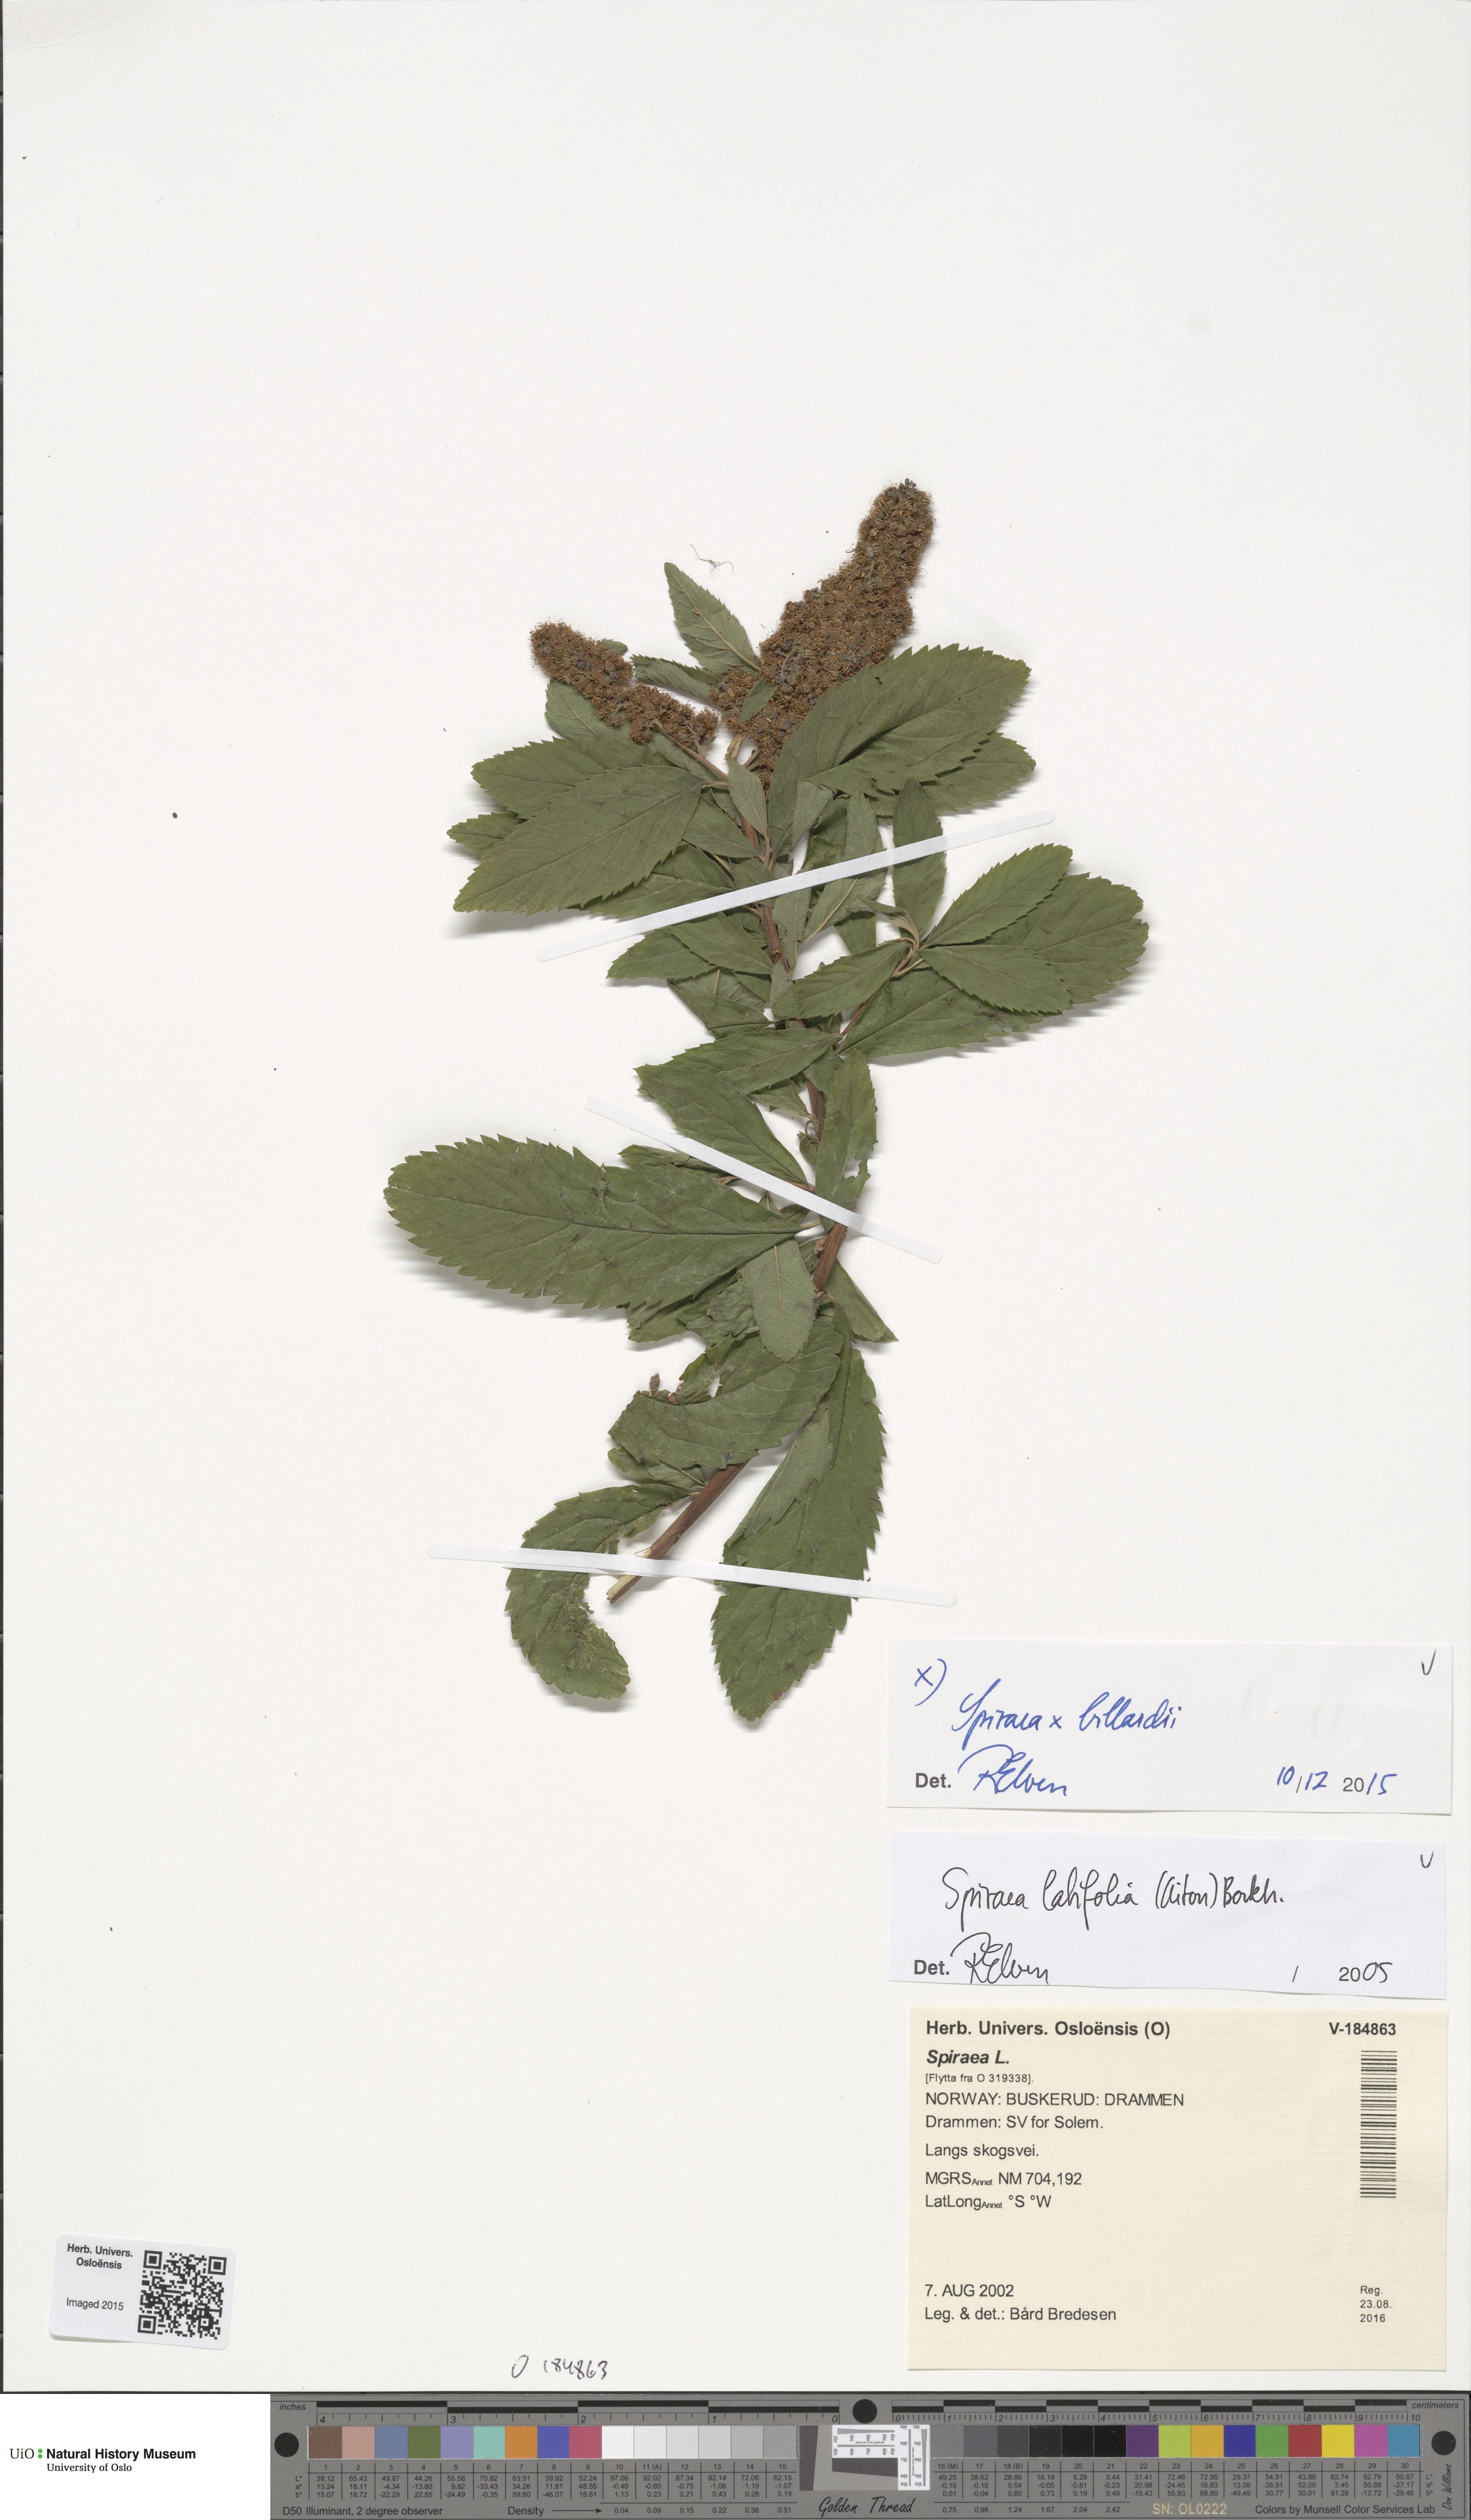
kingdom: Plantae
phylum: Tracheophyta
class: Magnoliopsida
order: Rosales
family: Rosaceae
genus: Spiraea
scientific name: Spiraea billardii
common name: Billard's bridewort
